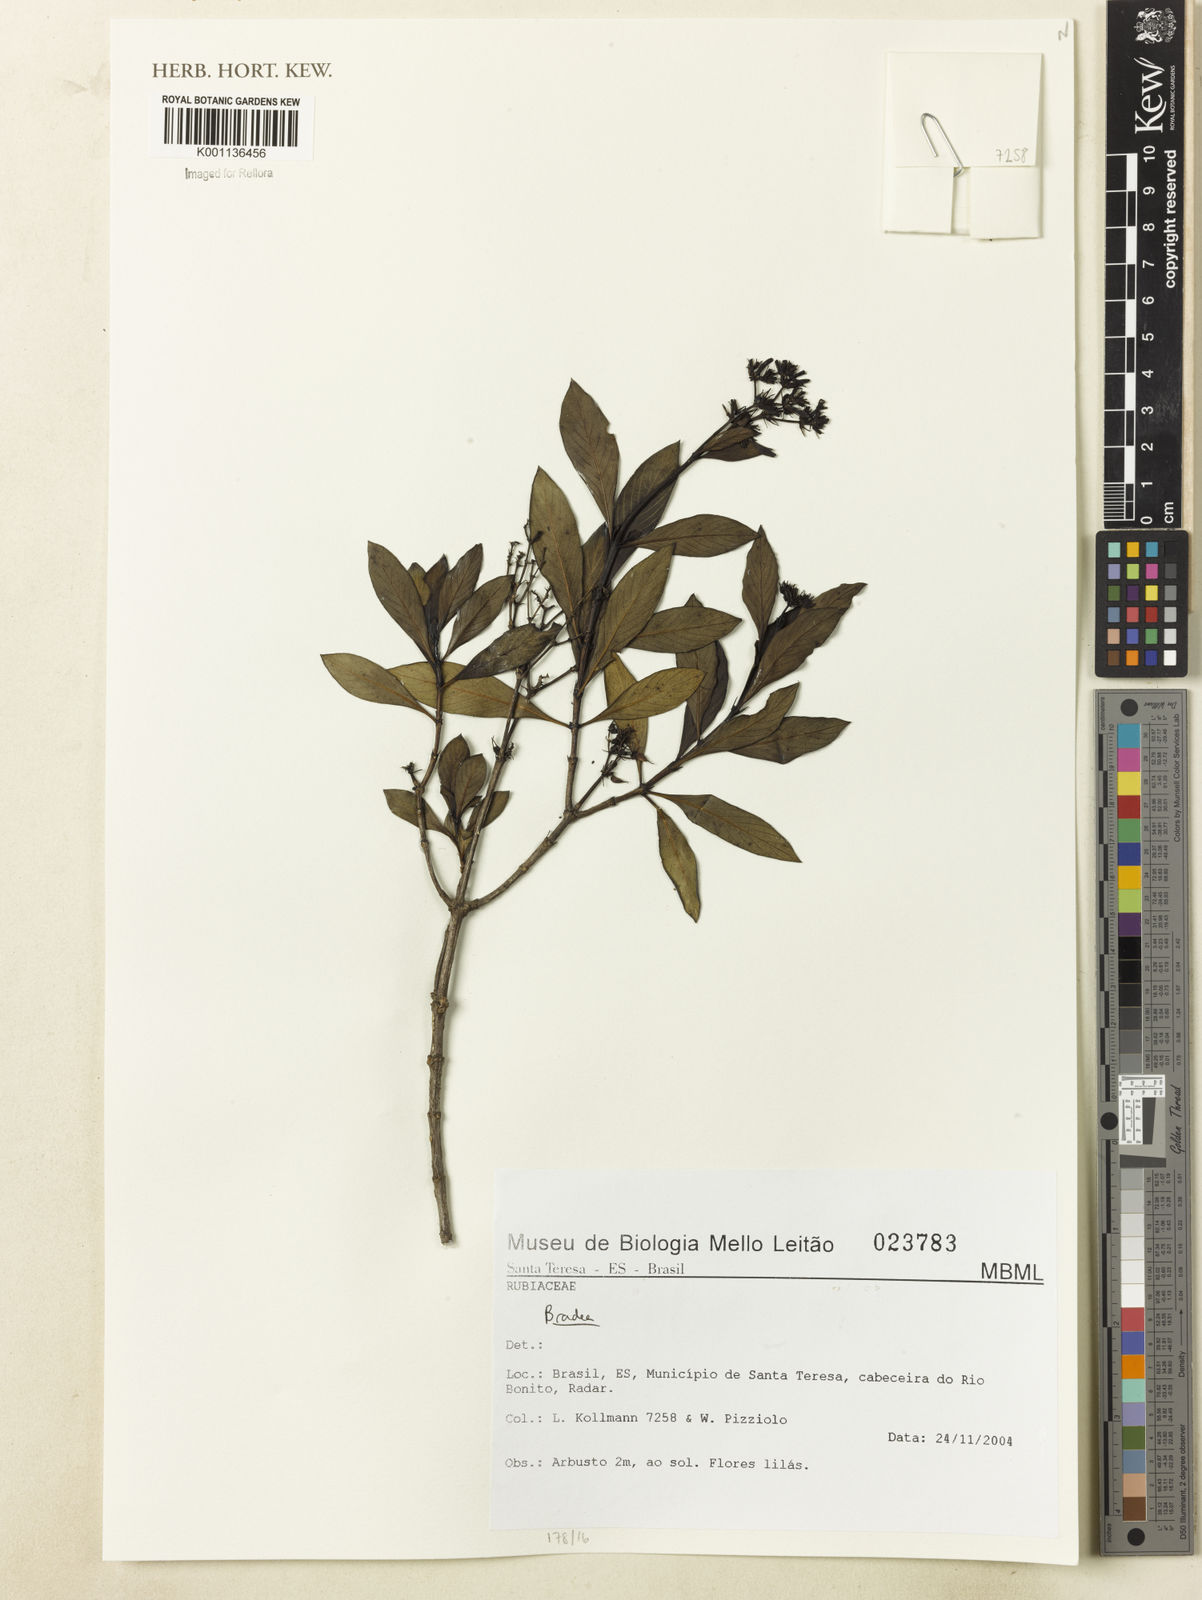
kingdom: Plantae
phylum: Tracheophyta
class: Magnoliopsida
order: Gentianales
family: Rubiaceae
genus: Bradea
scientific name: Bradea
